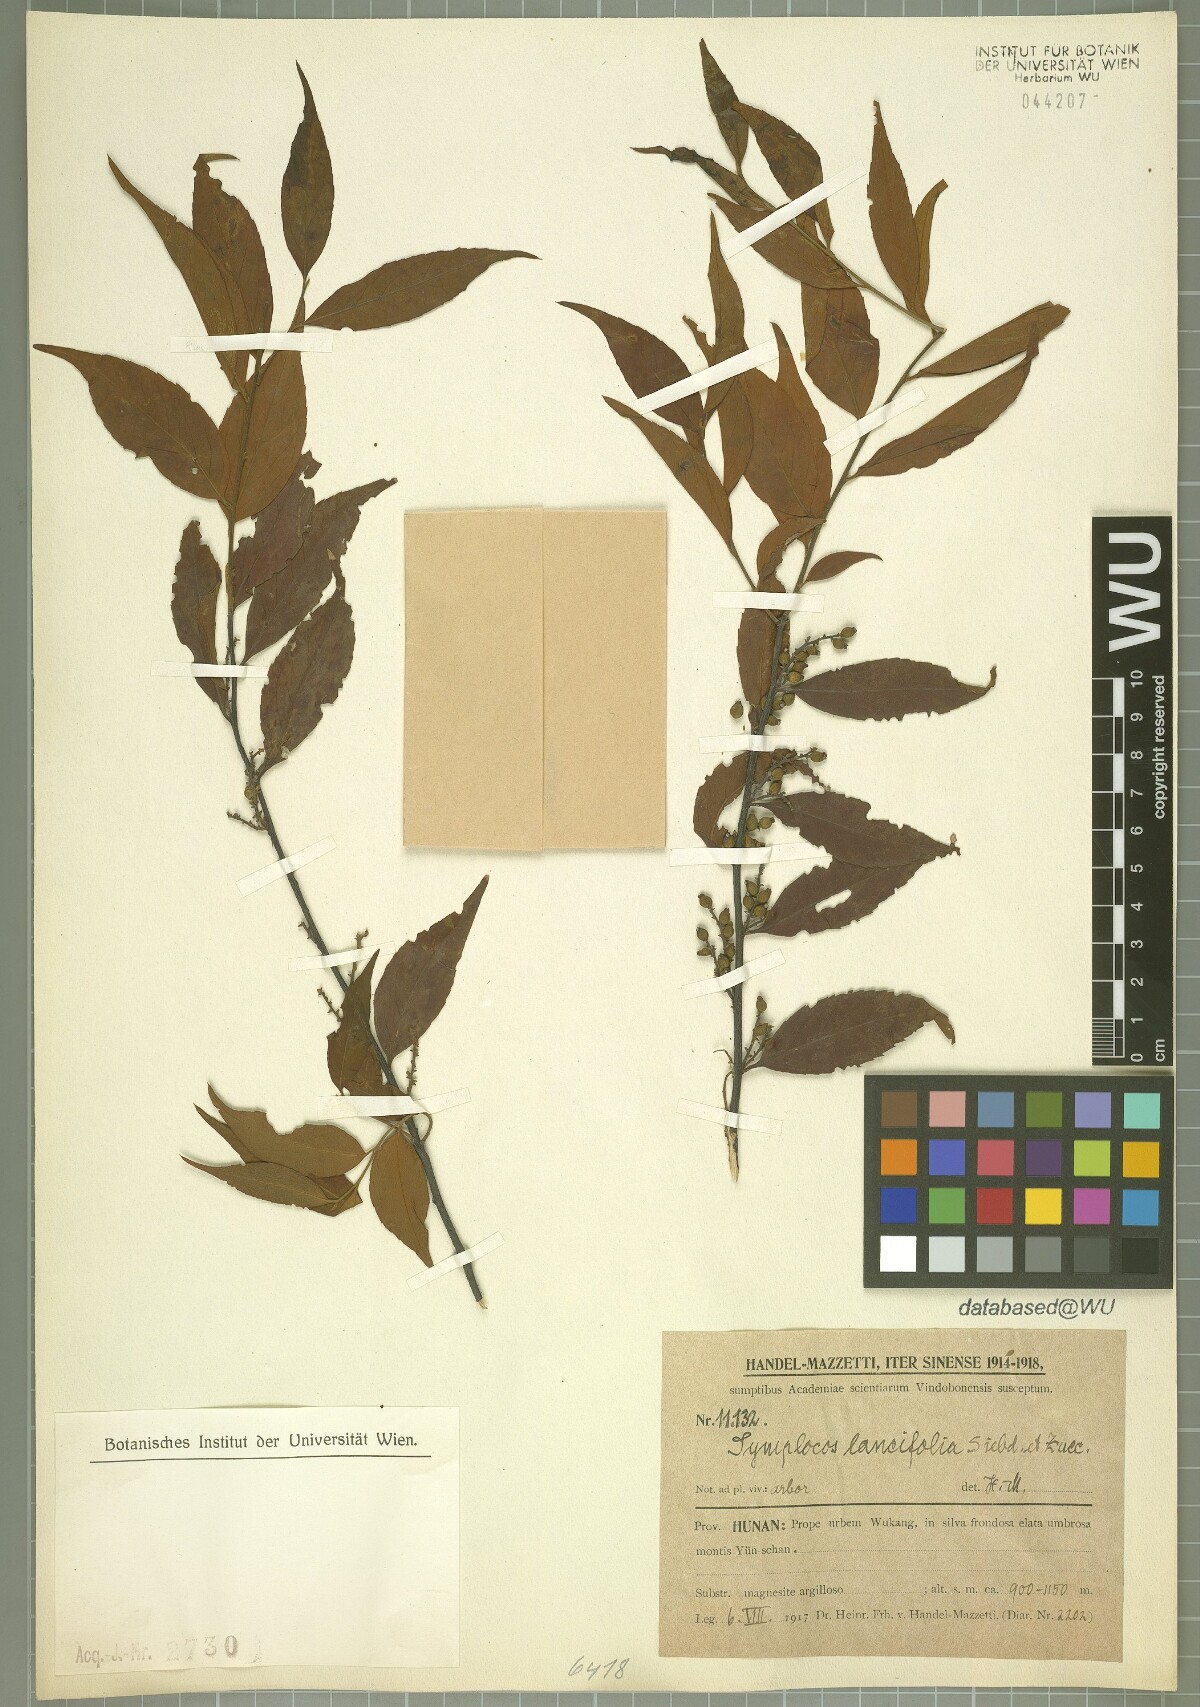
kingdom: Plantae
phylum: Tracheophyta
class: Magnoliopsida
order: Ericales
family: Symplocaceae
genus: Symplocos
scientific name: Symplocos lancifolia
